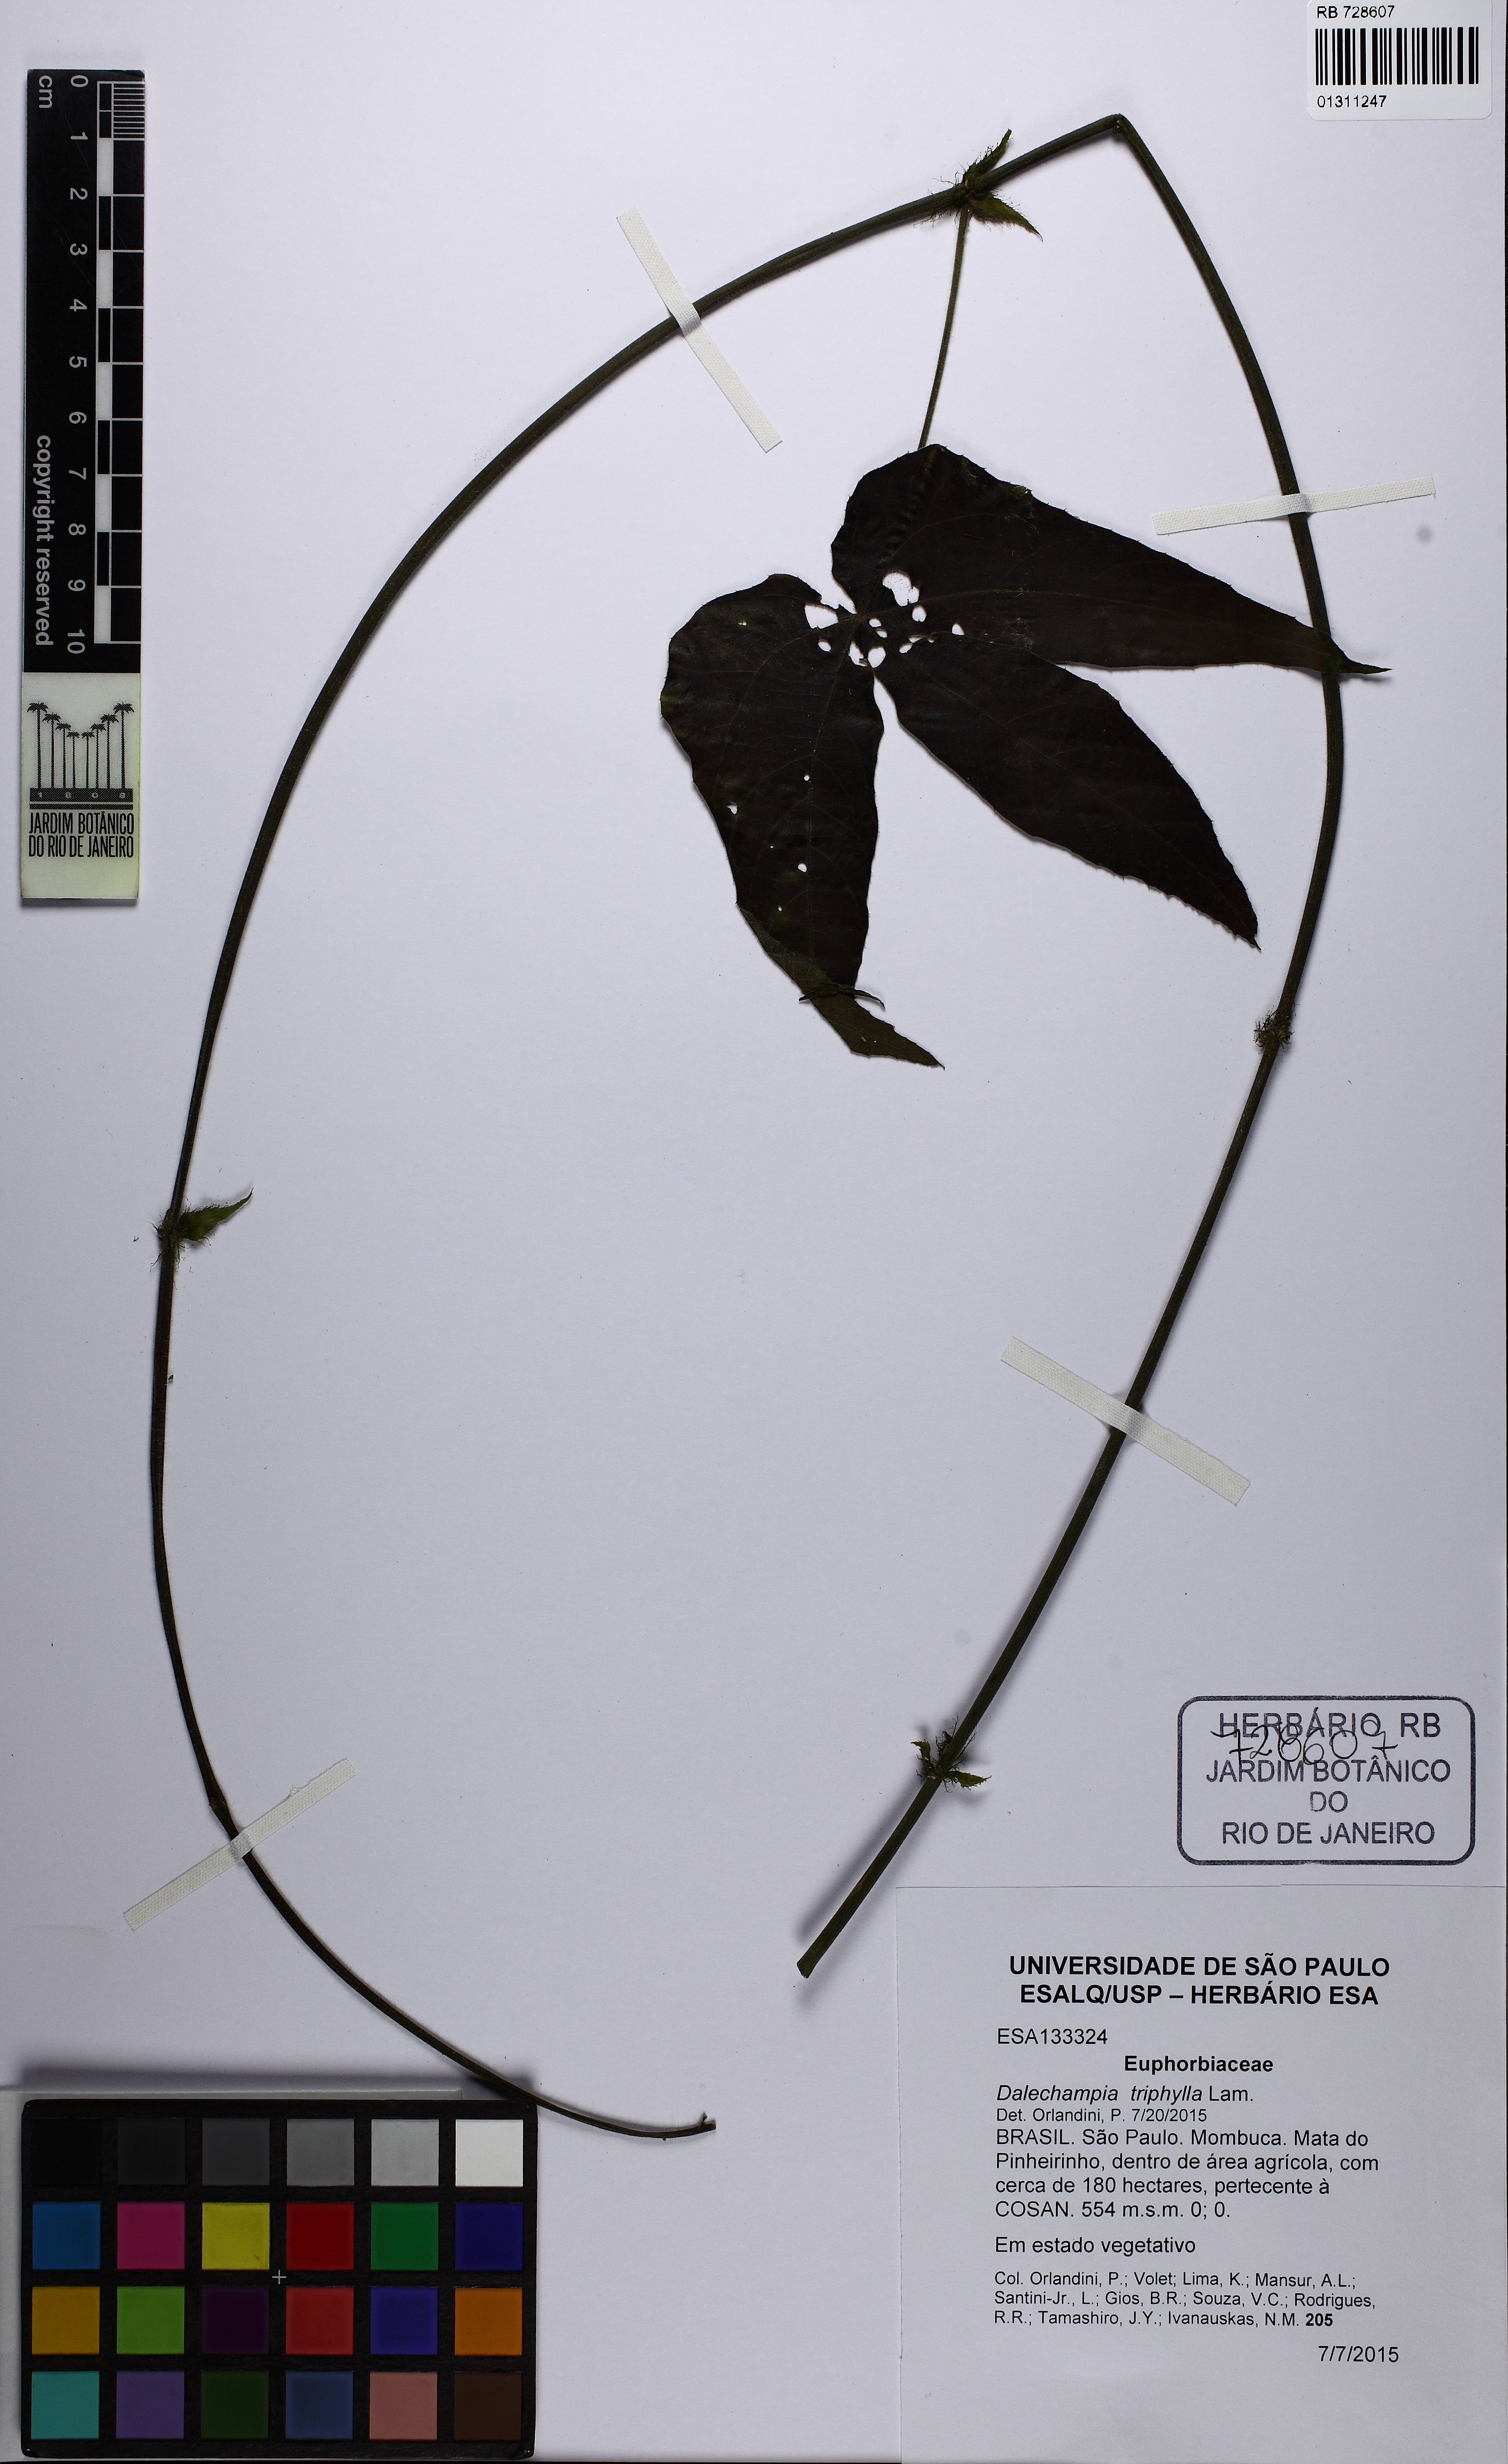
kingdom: Plantae
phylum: Tracheophyta
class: Magnoliopsida
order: Malpighiales
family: Euphorbiaceae
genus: Dalechampia
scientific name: Dalechampia triphylla
